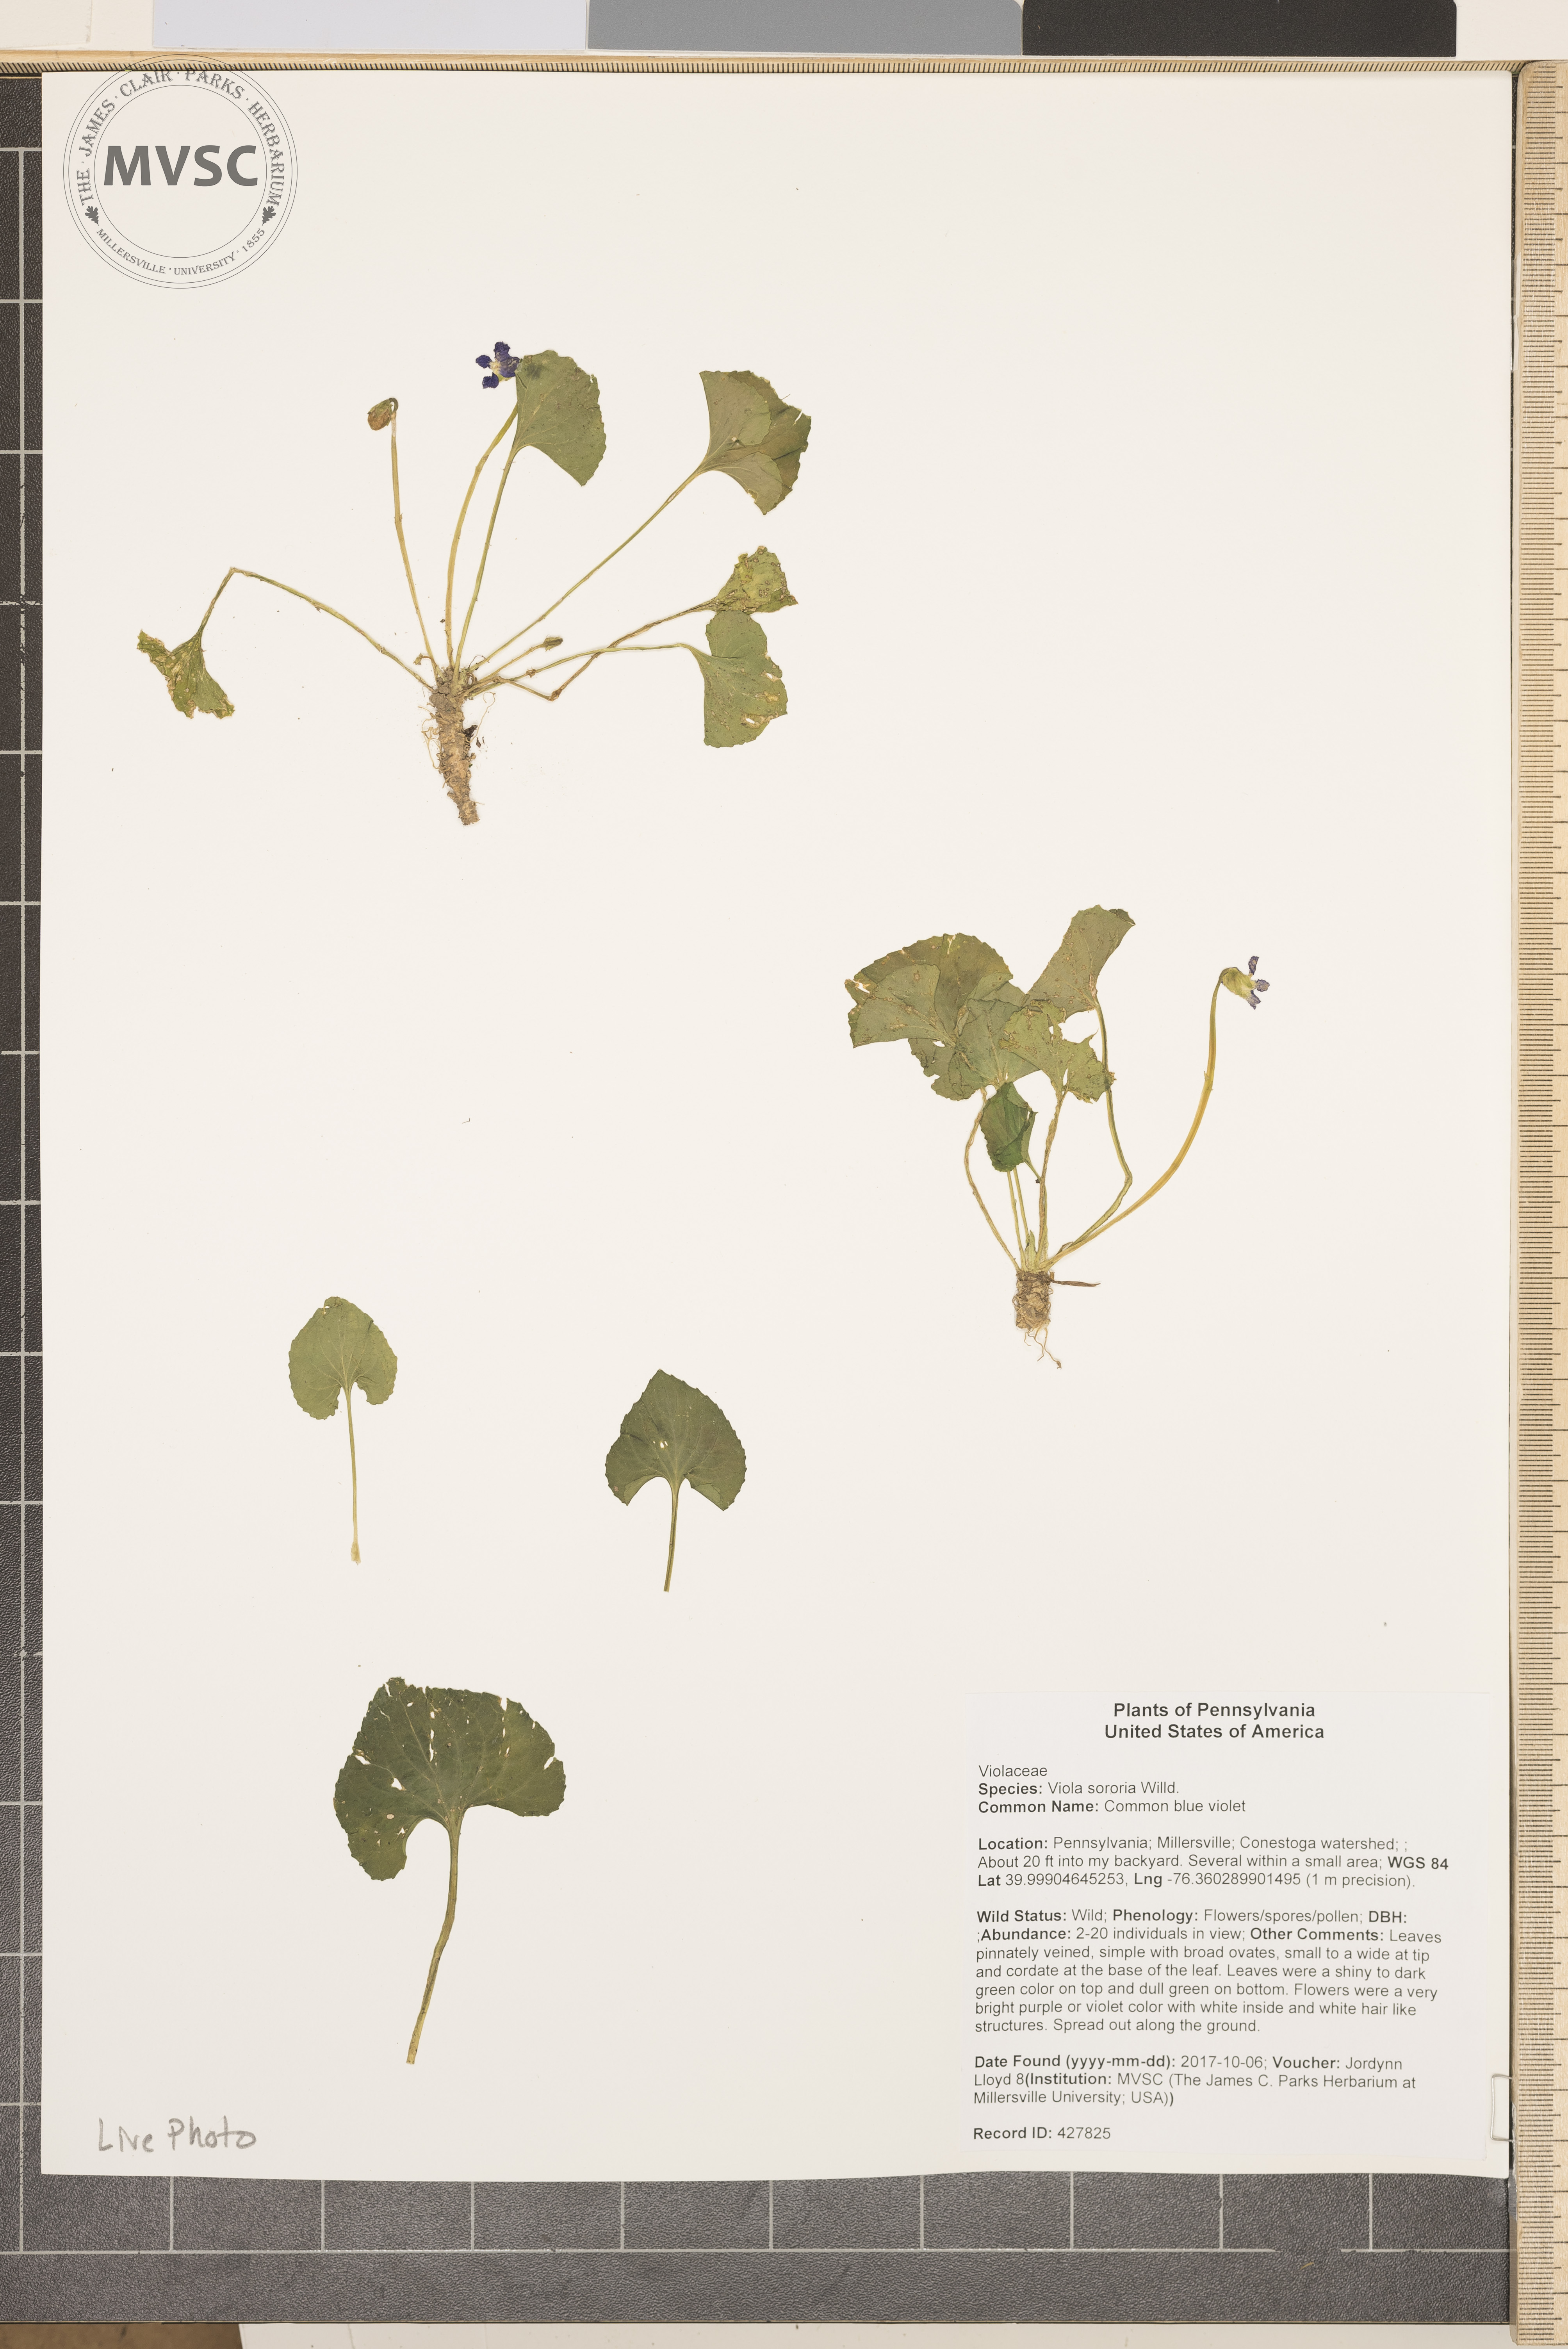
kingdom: Plantae
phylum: Tracheophyta
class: Magnoliopsida
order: Malpighiales
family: Violaceae
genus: Viola
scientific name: Viola sororia
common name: Common blue violet
